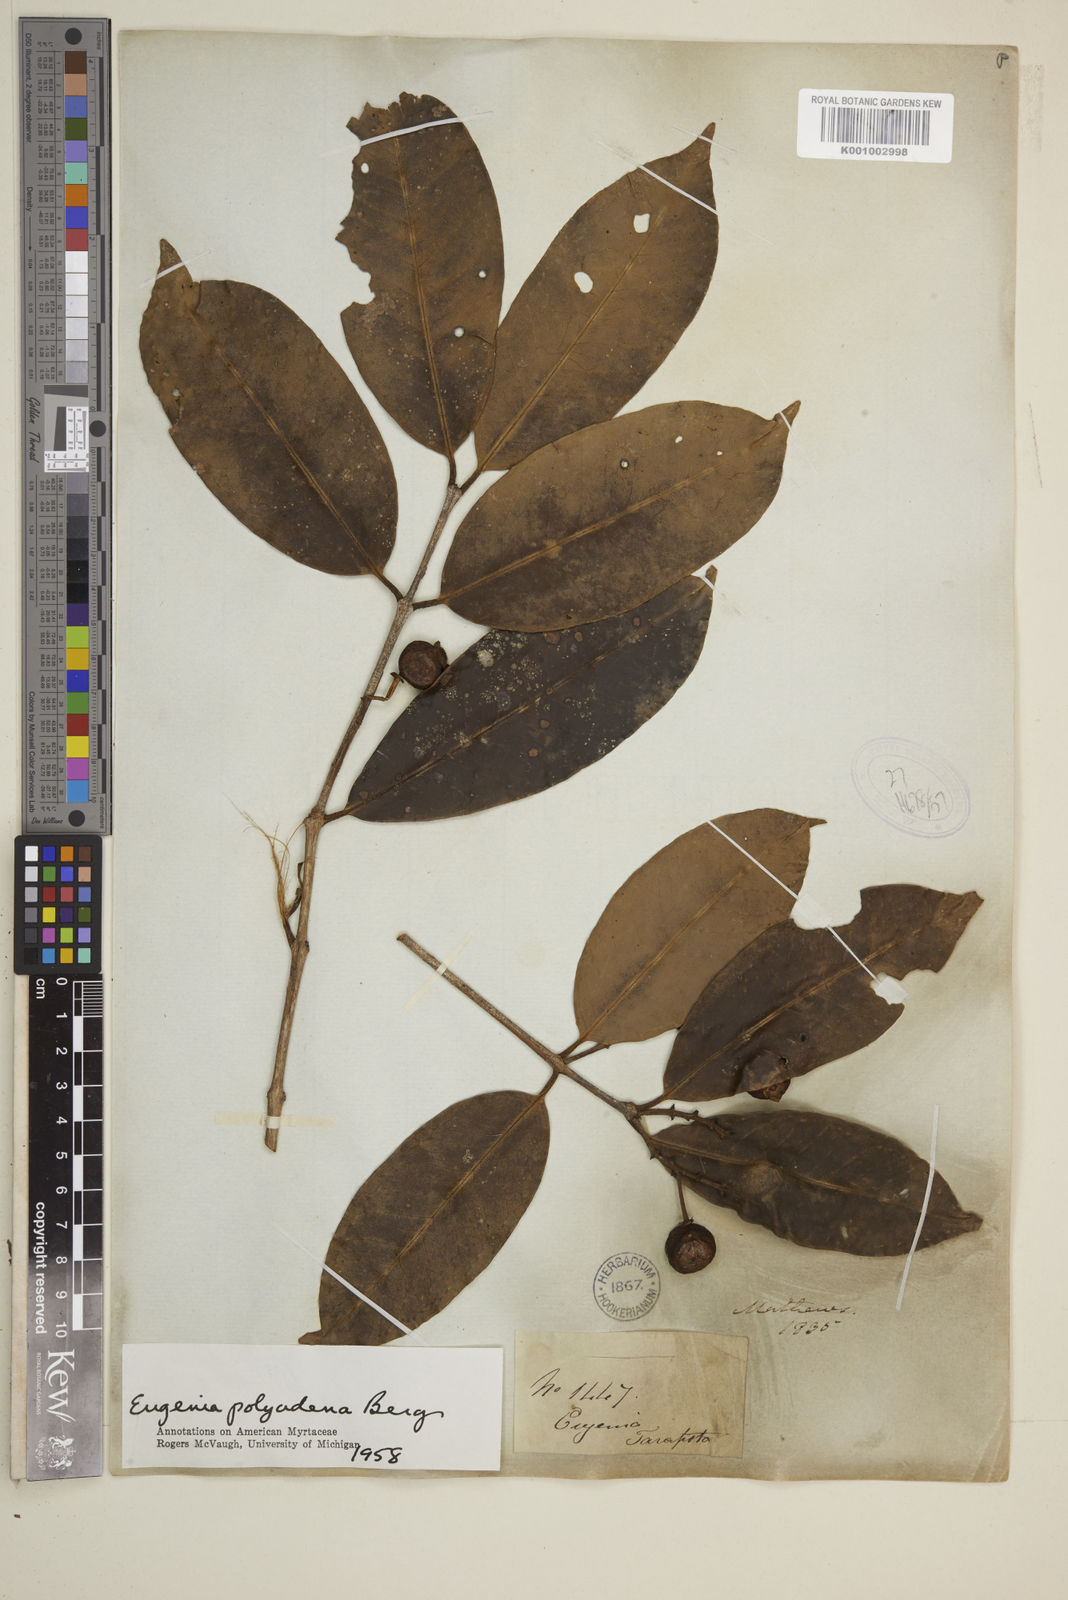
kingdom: Plantae
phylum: Tracheophyta
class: Magnoliopsida
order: Myrtales
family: Myrtaceae
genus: Eugenia
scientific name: Eugenia polyadena
